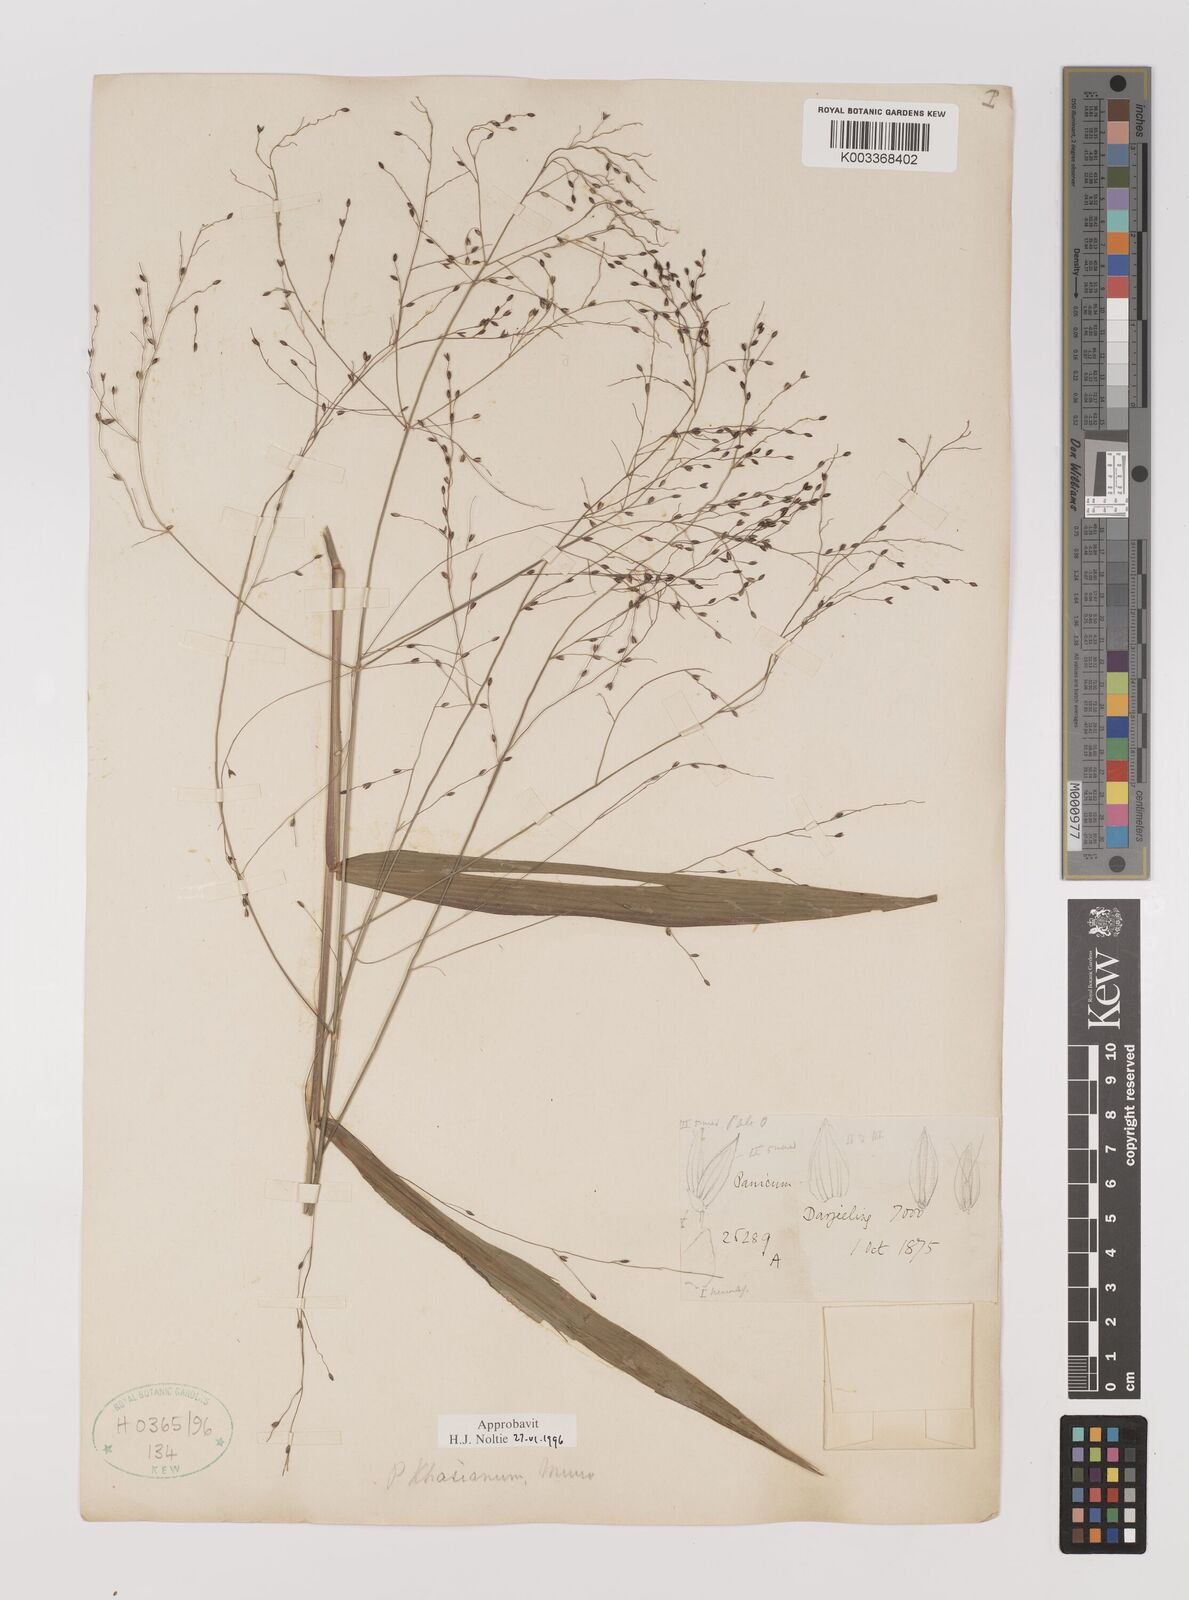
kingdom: Plantae
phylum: Tracheophyta
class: Liliopsida
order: Poales
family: Poaceae
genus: Panicum
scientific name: Panicum khasianum
